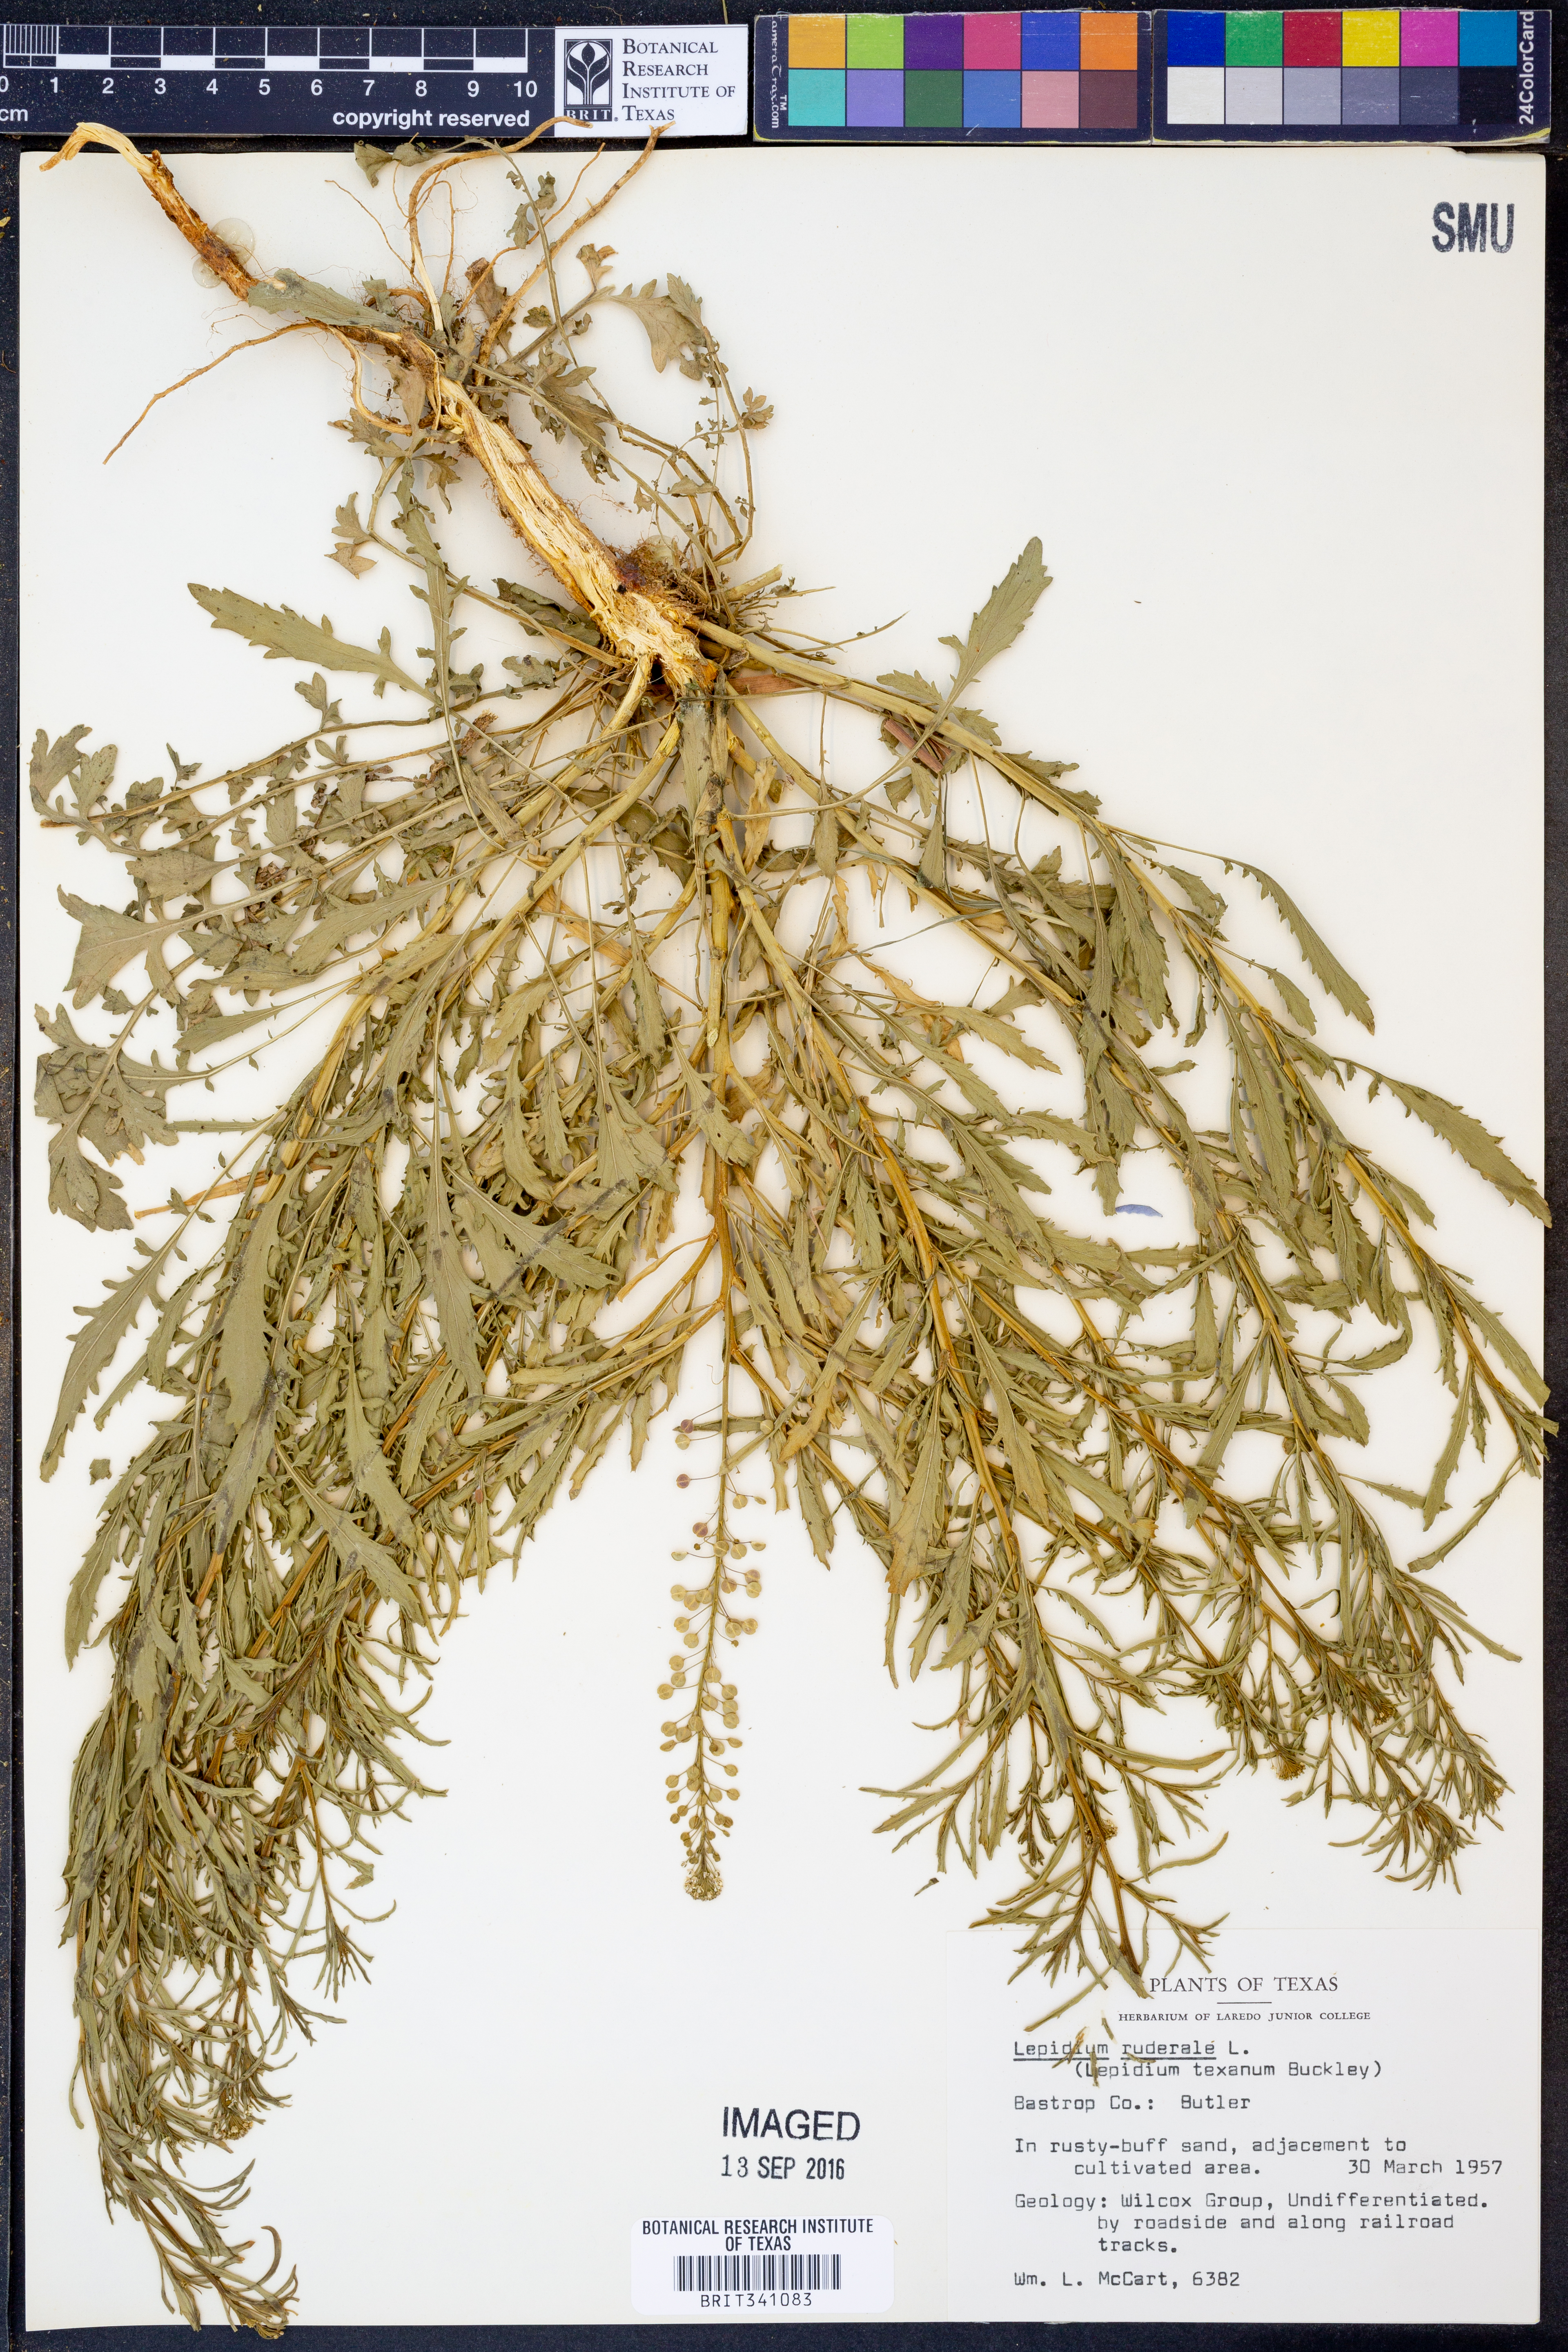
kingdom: Plantae
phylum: Tracheophyta
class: Magnoliopsida
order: Brassicales
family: Brassicaceae
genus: Lepidium
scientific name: Lepidium ruderale
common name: Narrow-leaved pepperwort
